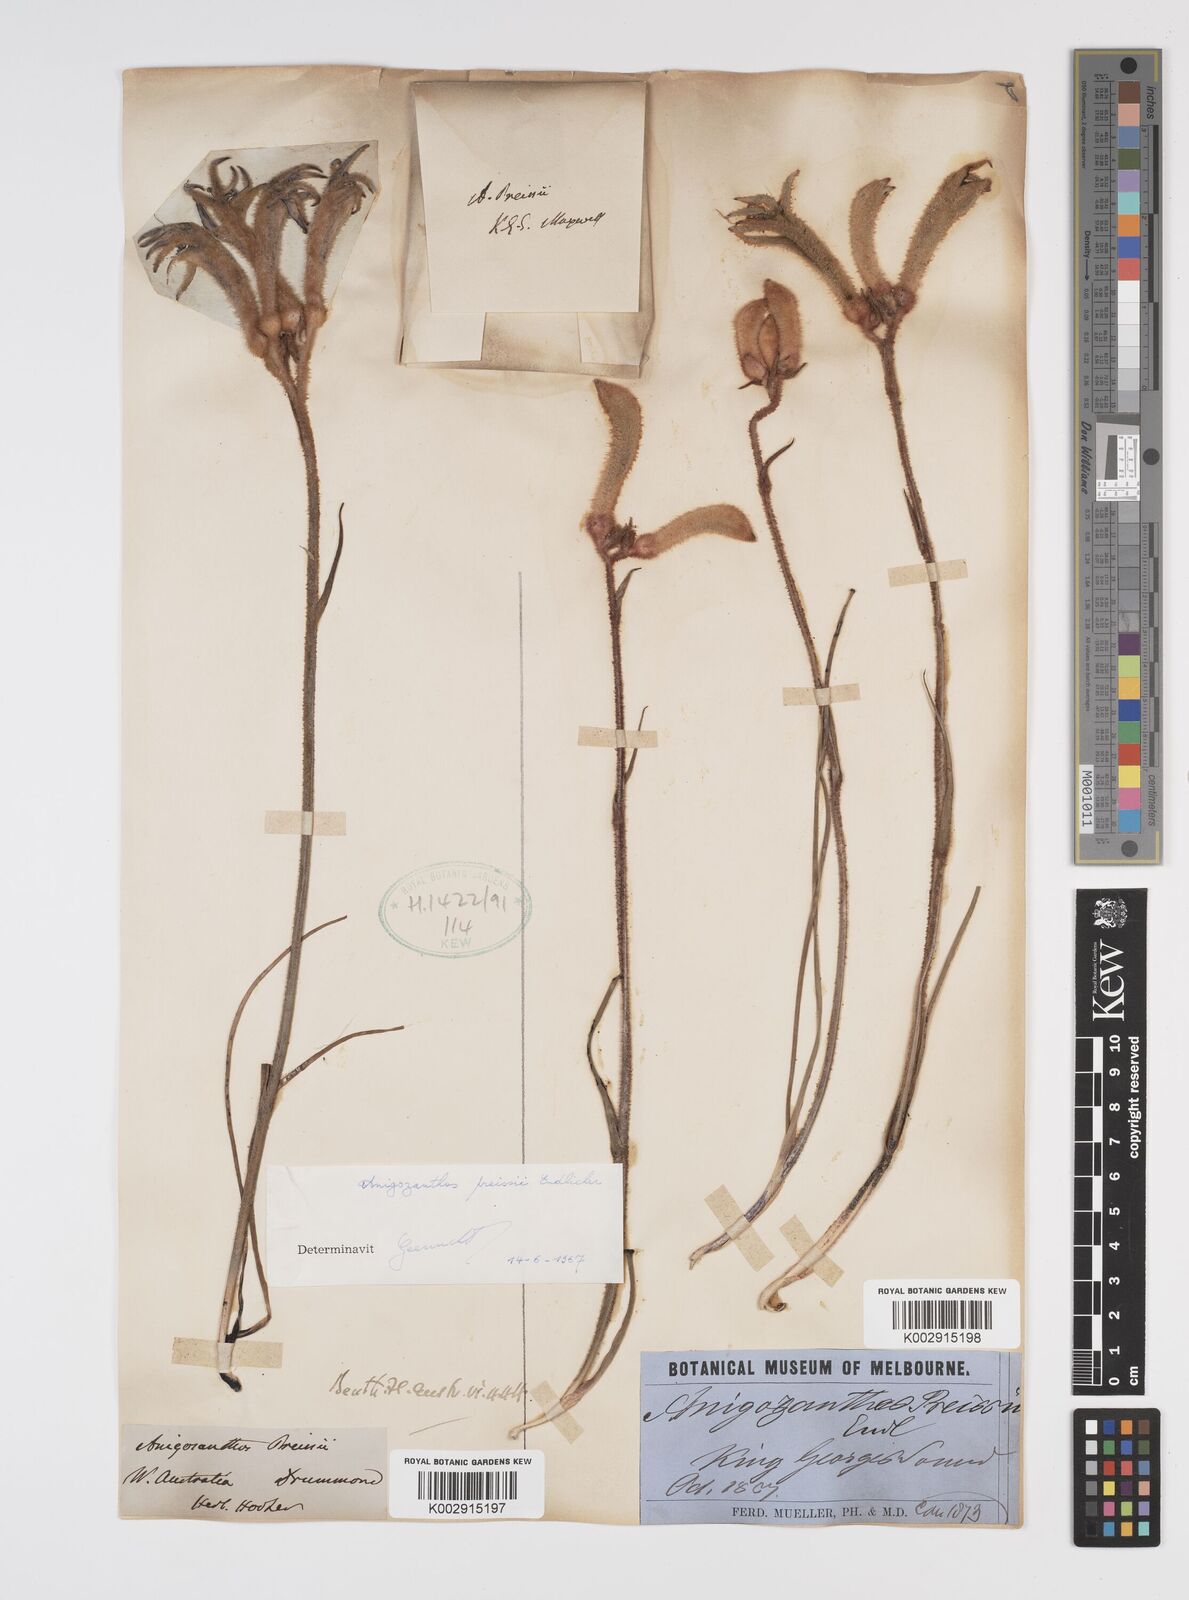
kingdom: Plantae
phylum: Tracheophyta
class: Liliopsida
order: Commelinales
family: Haemodoraceae
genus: Anigozanthos
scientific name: Anigozanthos preissii
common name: Albany cat's-paw
